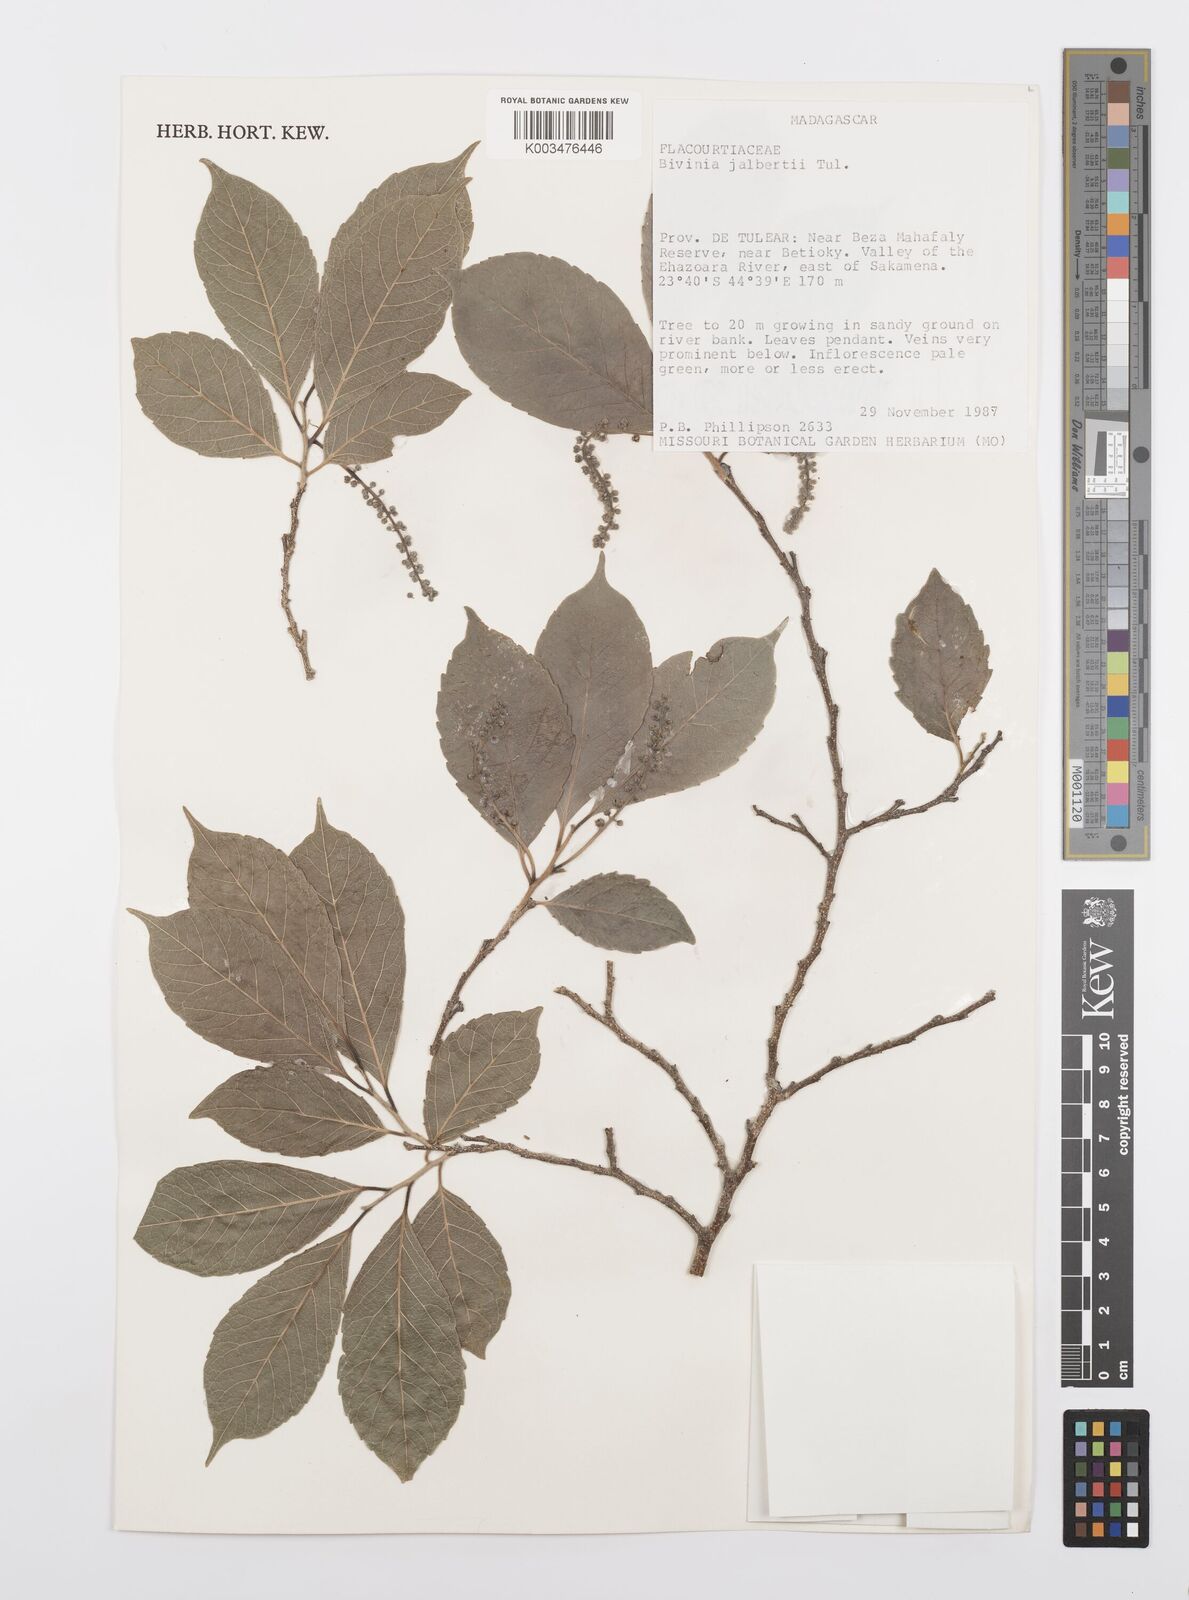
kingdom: Plantae
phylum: Tracheophyta
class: Magnoliopsida
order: Malpighiales
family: Salicaceae
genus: Bivinia
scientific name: Bivinia jalbertii
